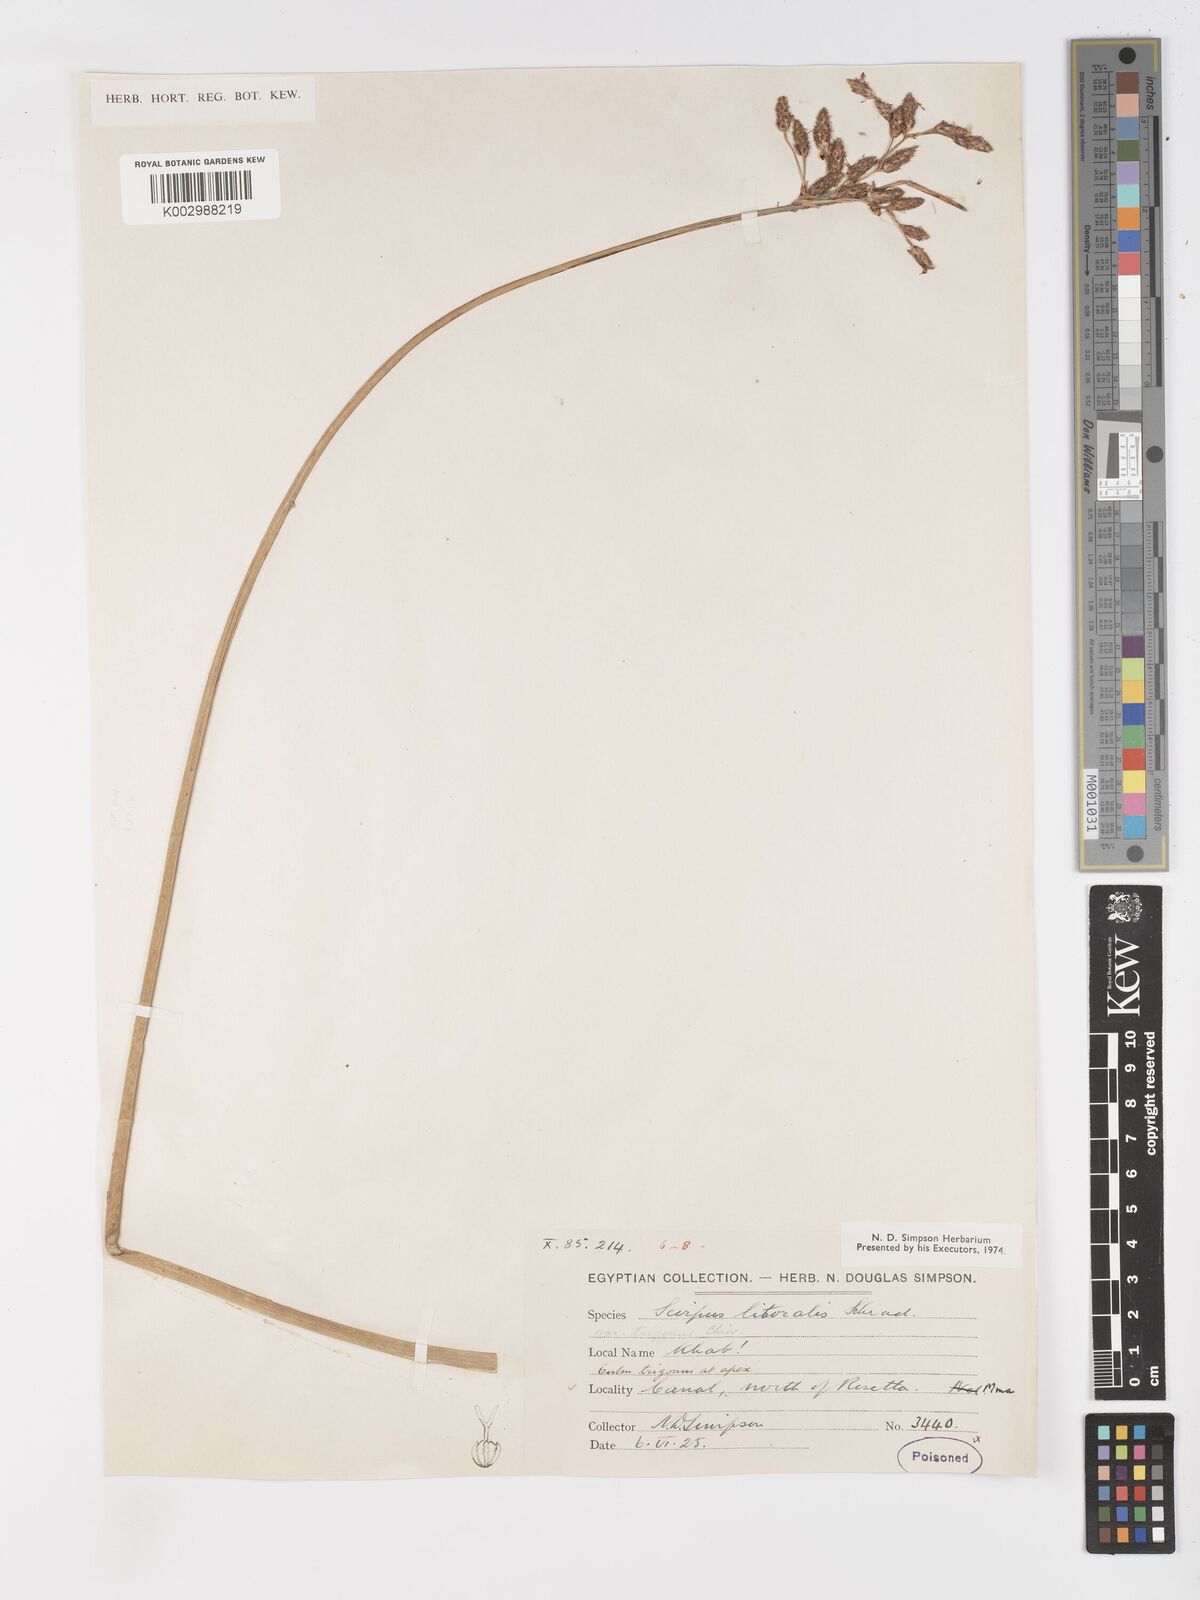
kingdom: Plantae
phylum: Tracheophyta
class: Liliopsida
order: Poales
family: Cyperaceae
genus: Schoenoplectus
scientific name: Schoenoplectus litoralis
